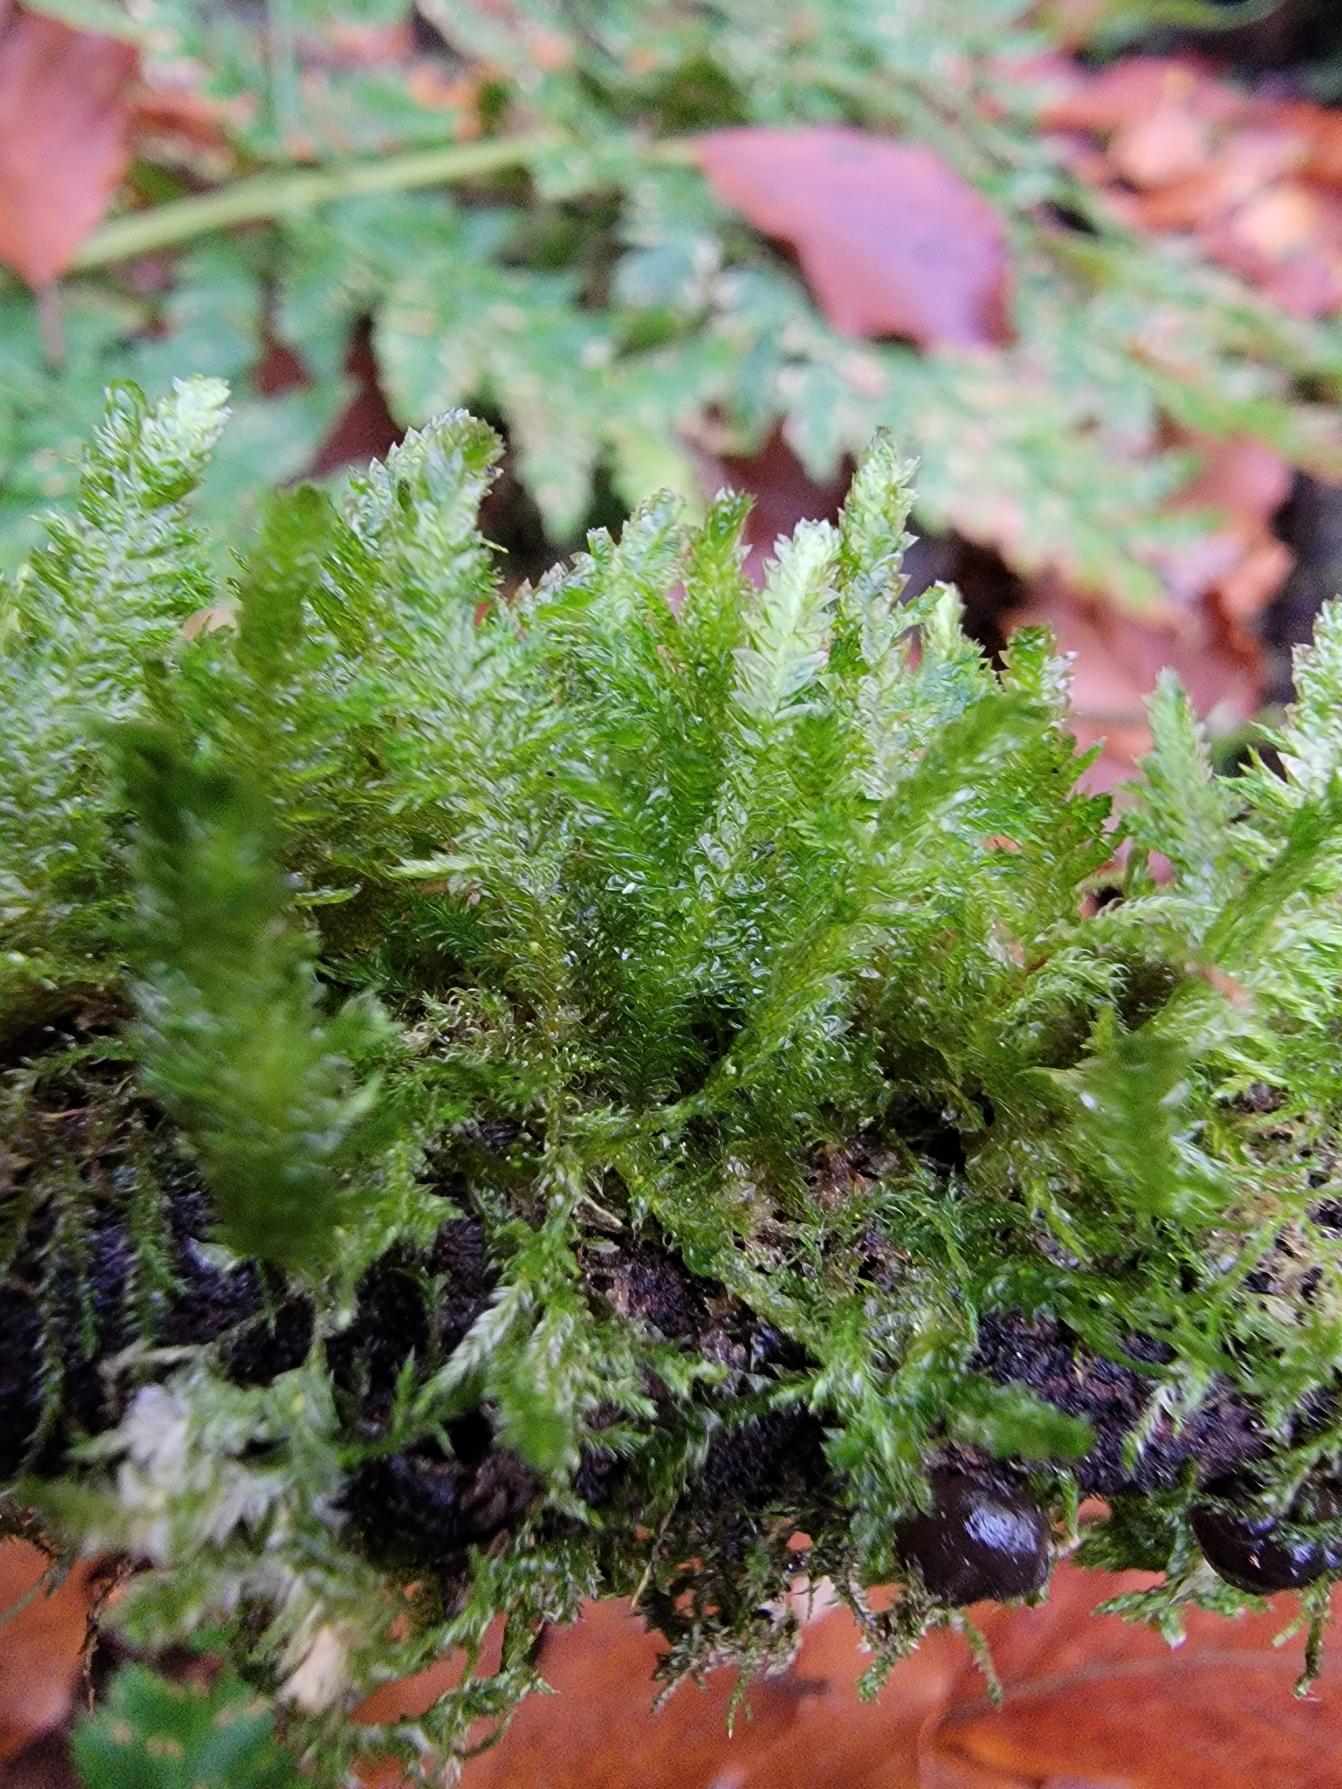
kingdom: Plantae
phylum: Bryophyta
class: Bryopsida
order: Hypnales
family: Neckeraceae
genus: Neckera
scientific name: Neckera pumila
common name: Lav fladmos
